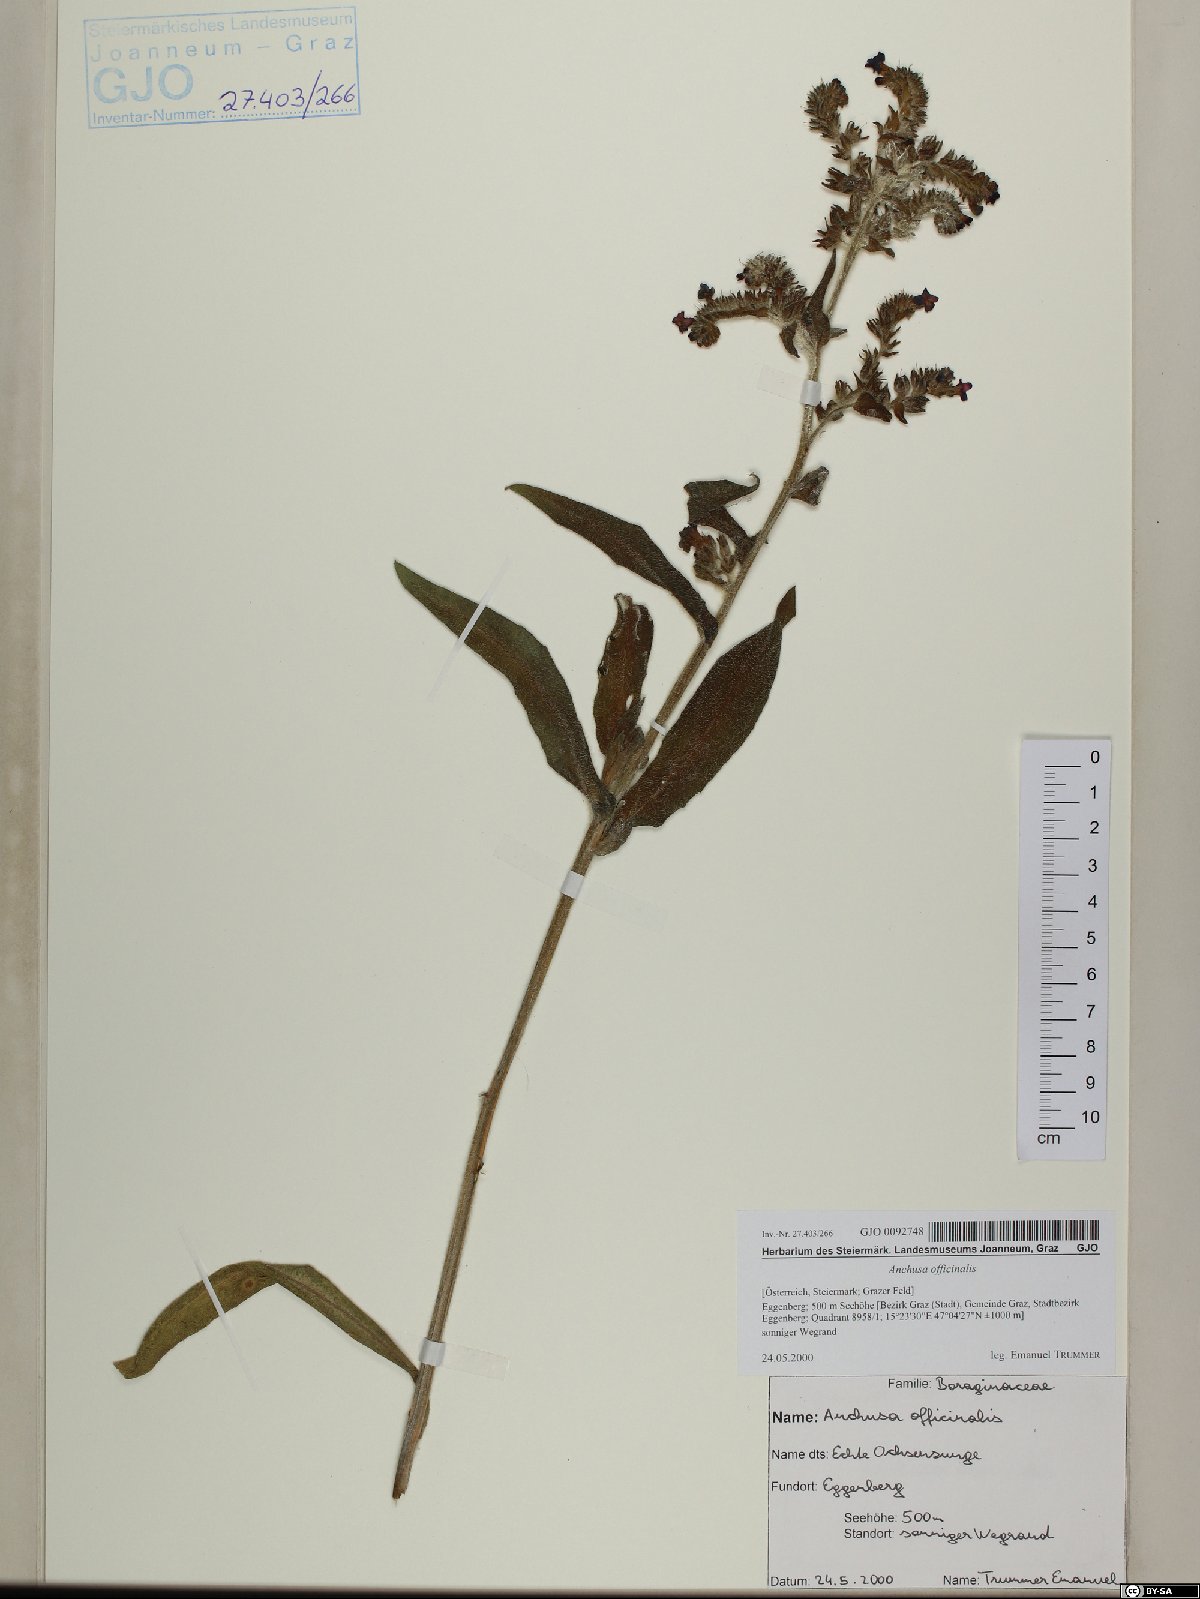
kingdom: Plantae
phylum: Tracheophyta
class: Magnoliopsida
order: Boraginales
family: Boraginaceae
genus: Anchusa
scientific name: Anchusa officinalis
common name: Alkanet
